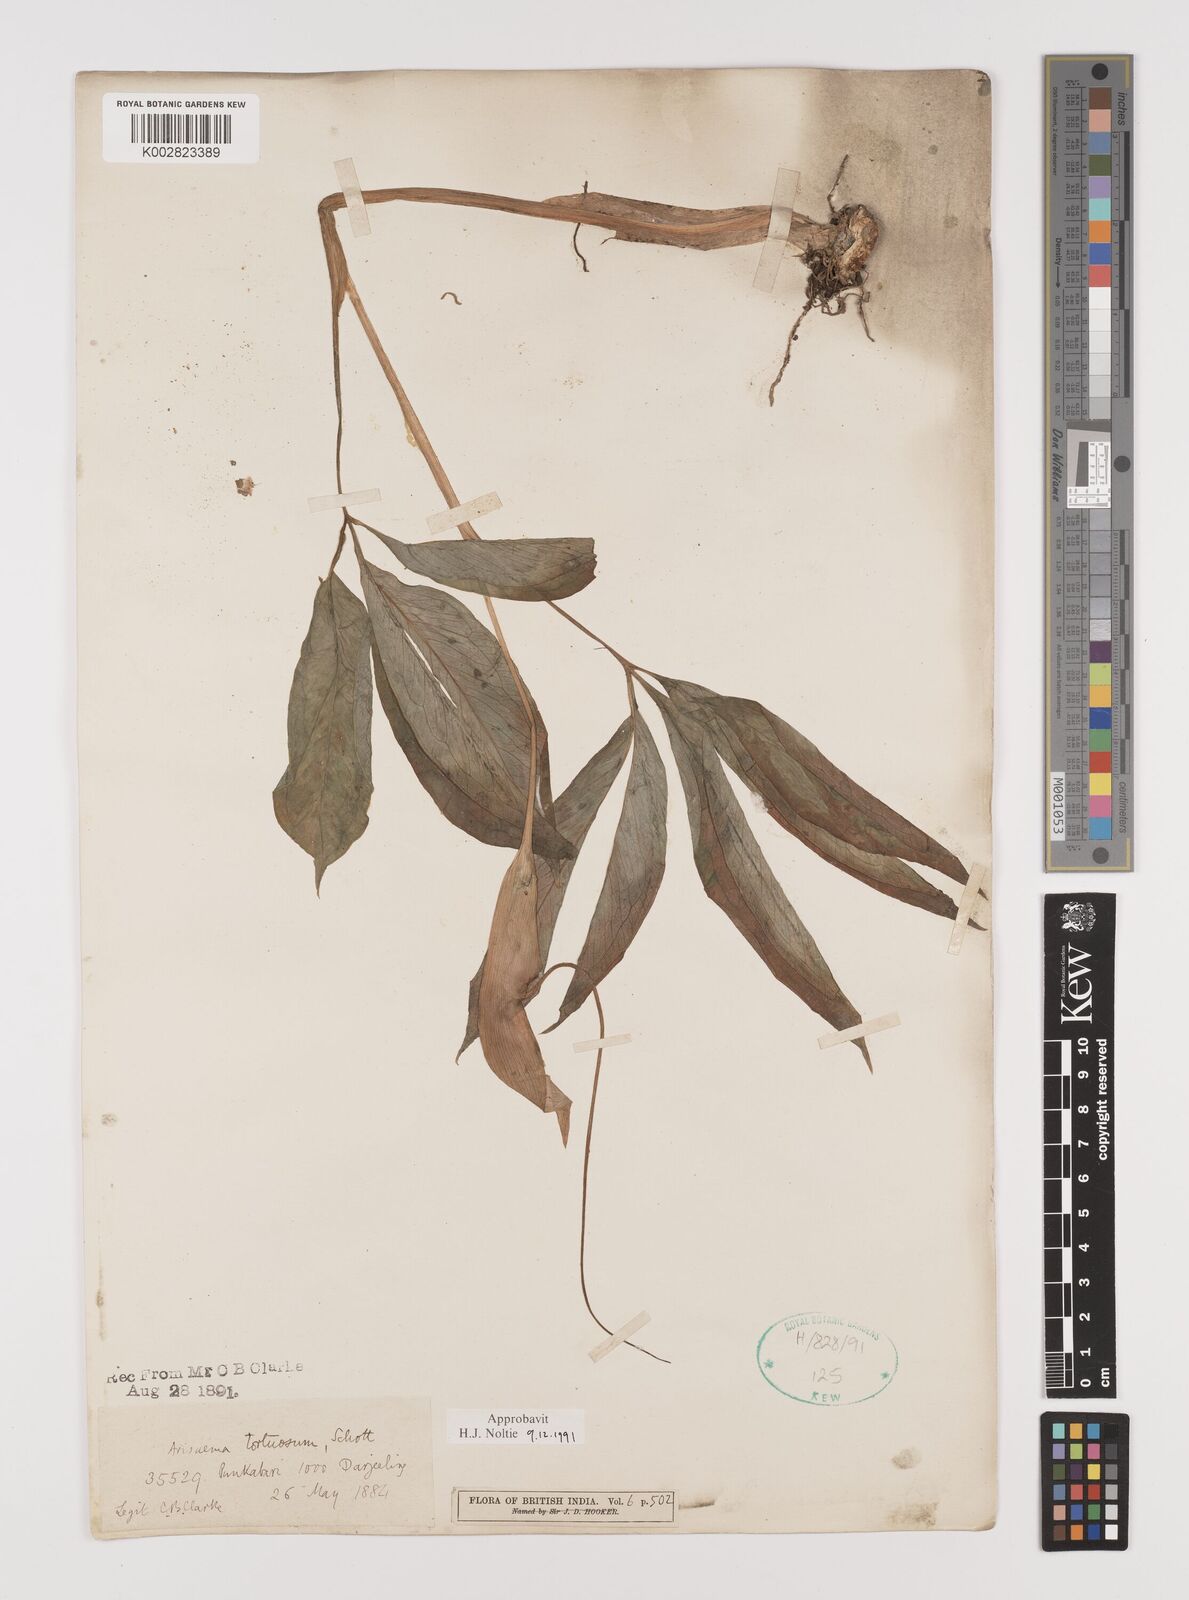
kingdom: Plantae
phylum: Tracheophyta
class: Liliopsida
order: Alismatales
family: Araceae
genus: Arisaema
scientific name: Arisaema tortuosum
